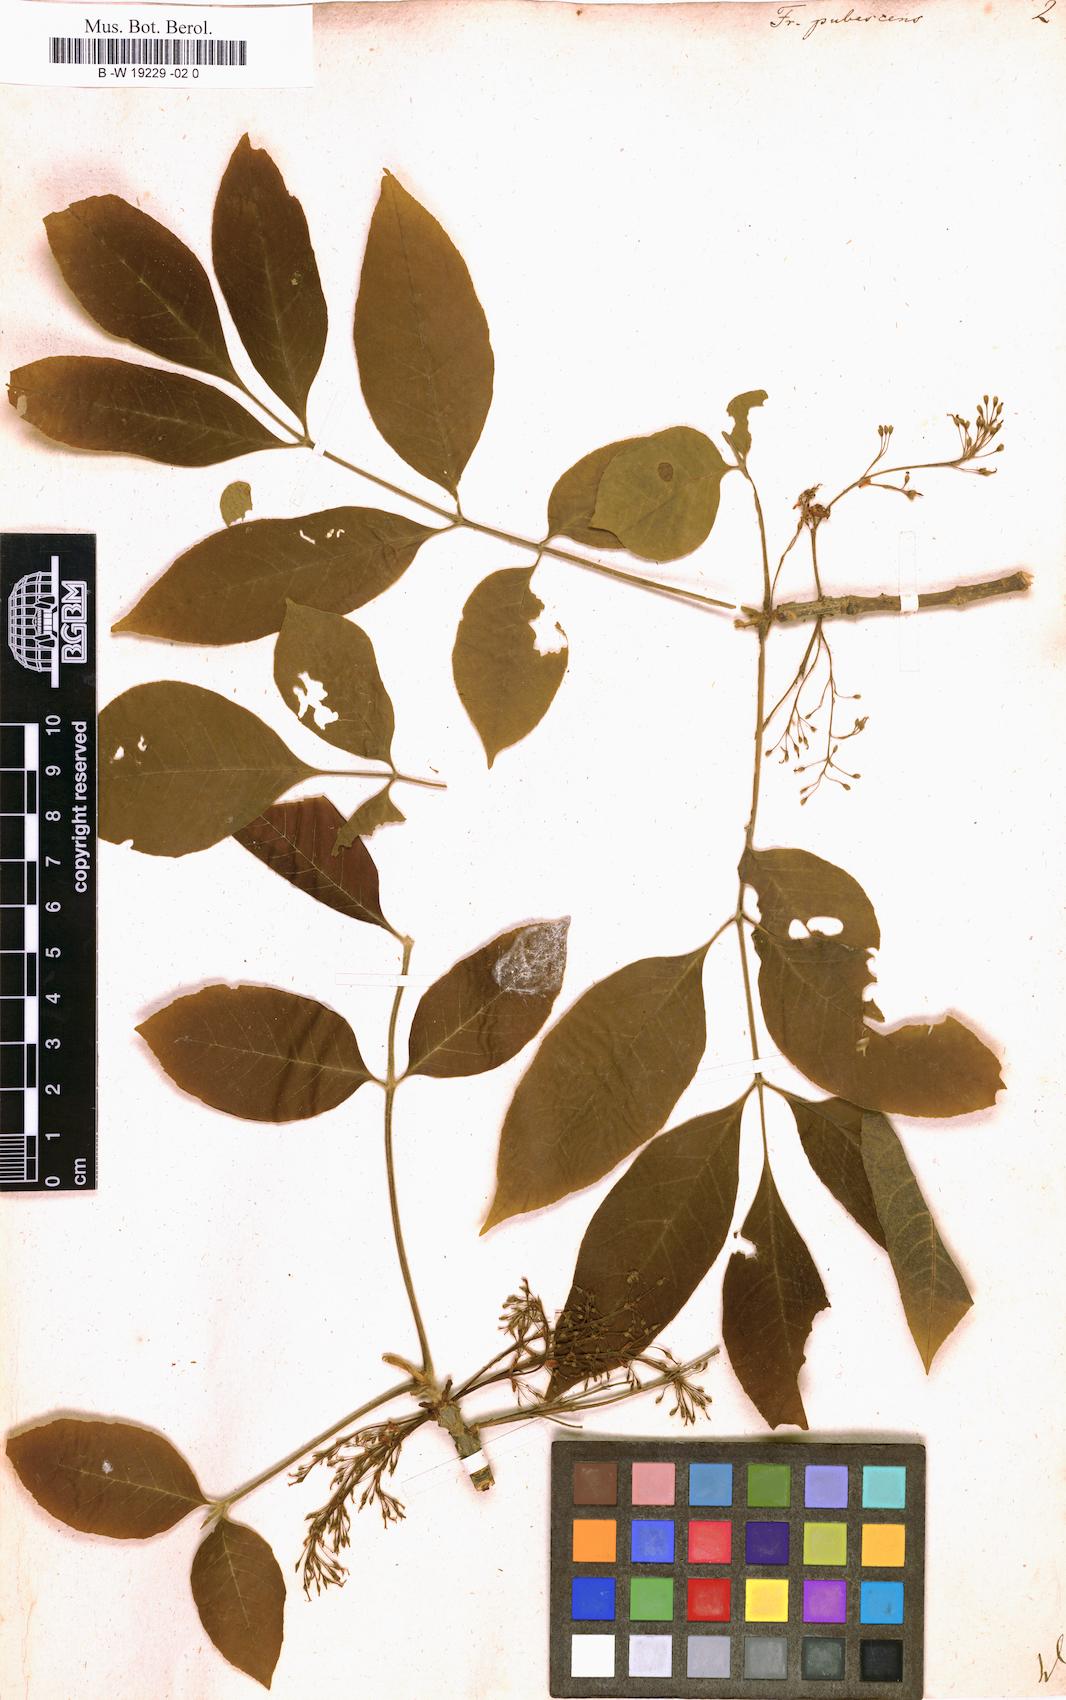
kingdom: Plantae
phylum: Tracheophyta
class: Magnoliopsida
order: Lamiales
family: Oleaceae
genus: Fraxinus
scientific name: Fraxinus pubescens
